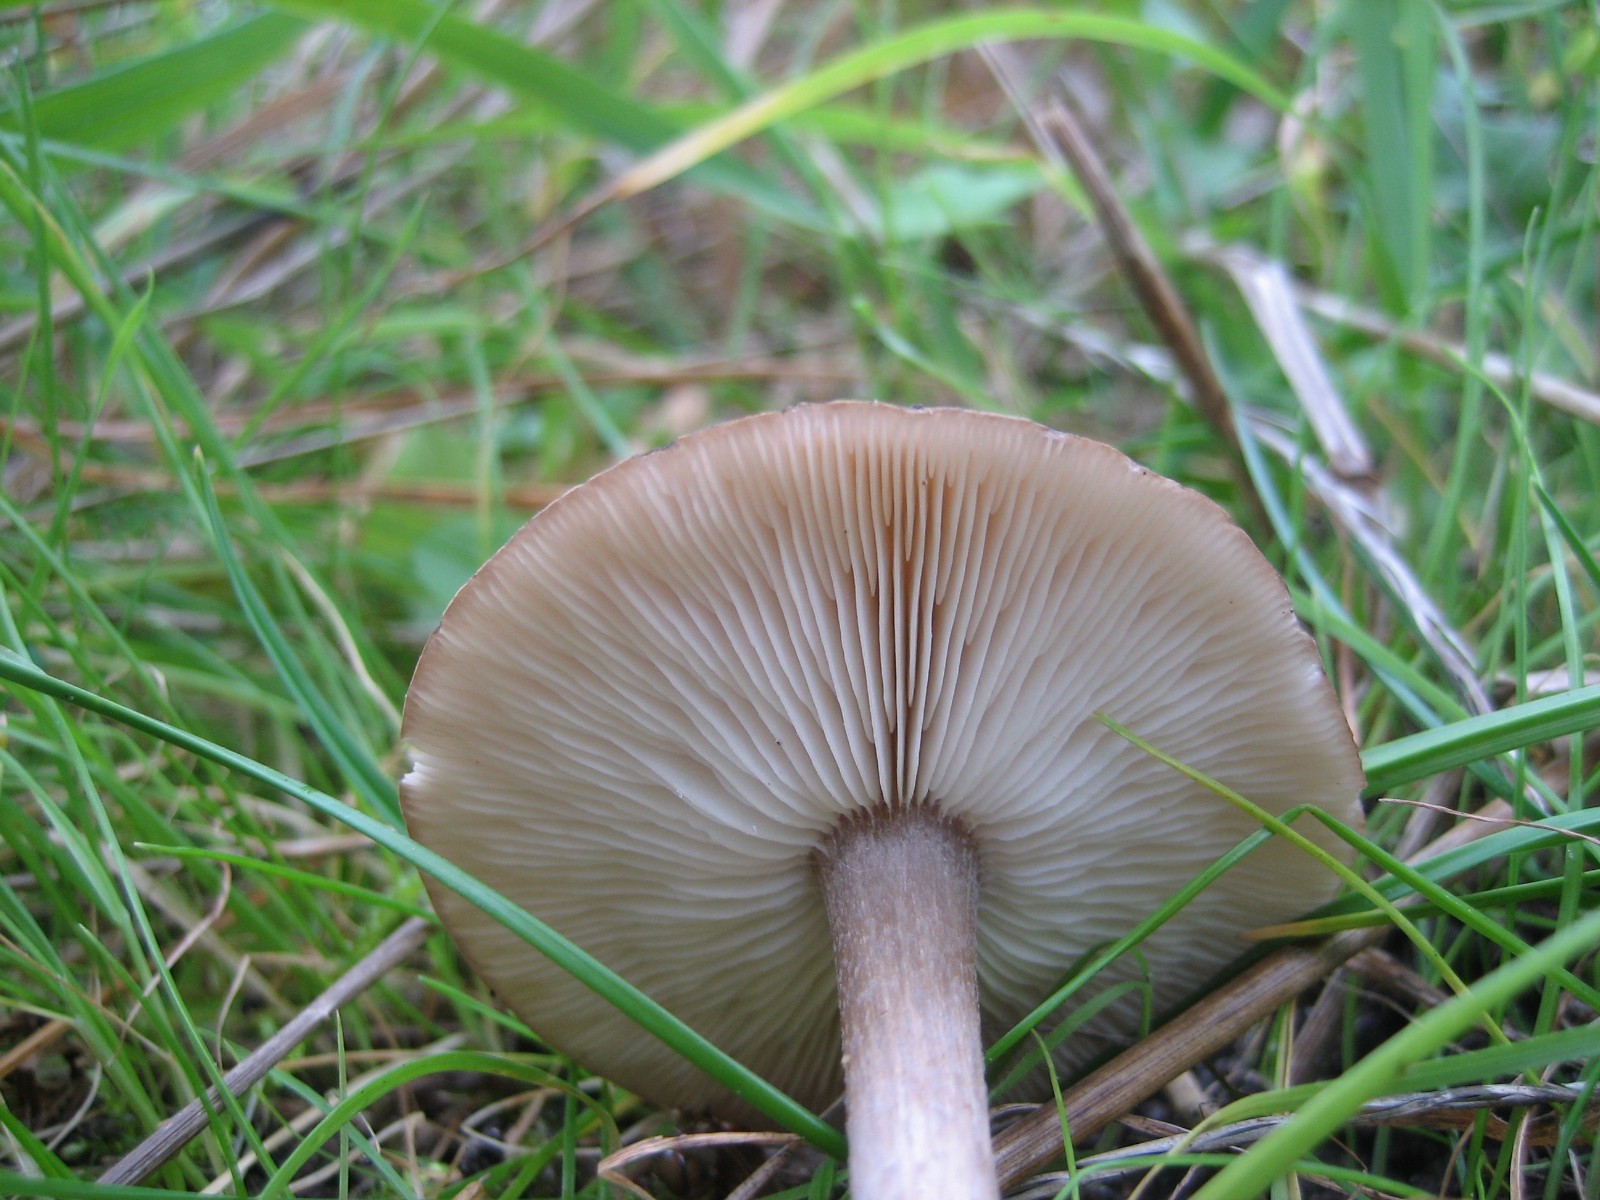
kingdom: Fungi
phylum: Basidiomycota
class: Agaricomycetes
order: Agaricales
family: Tricholomataceae
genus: Melanoleuca
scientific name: Melanoleuca
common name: munkehat
